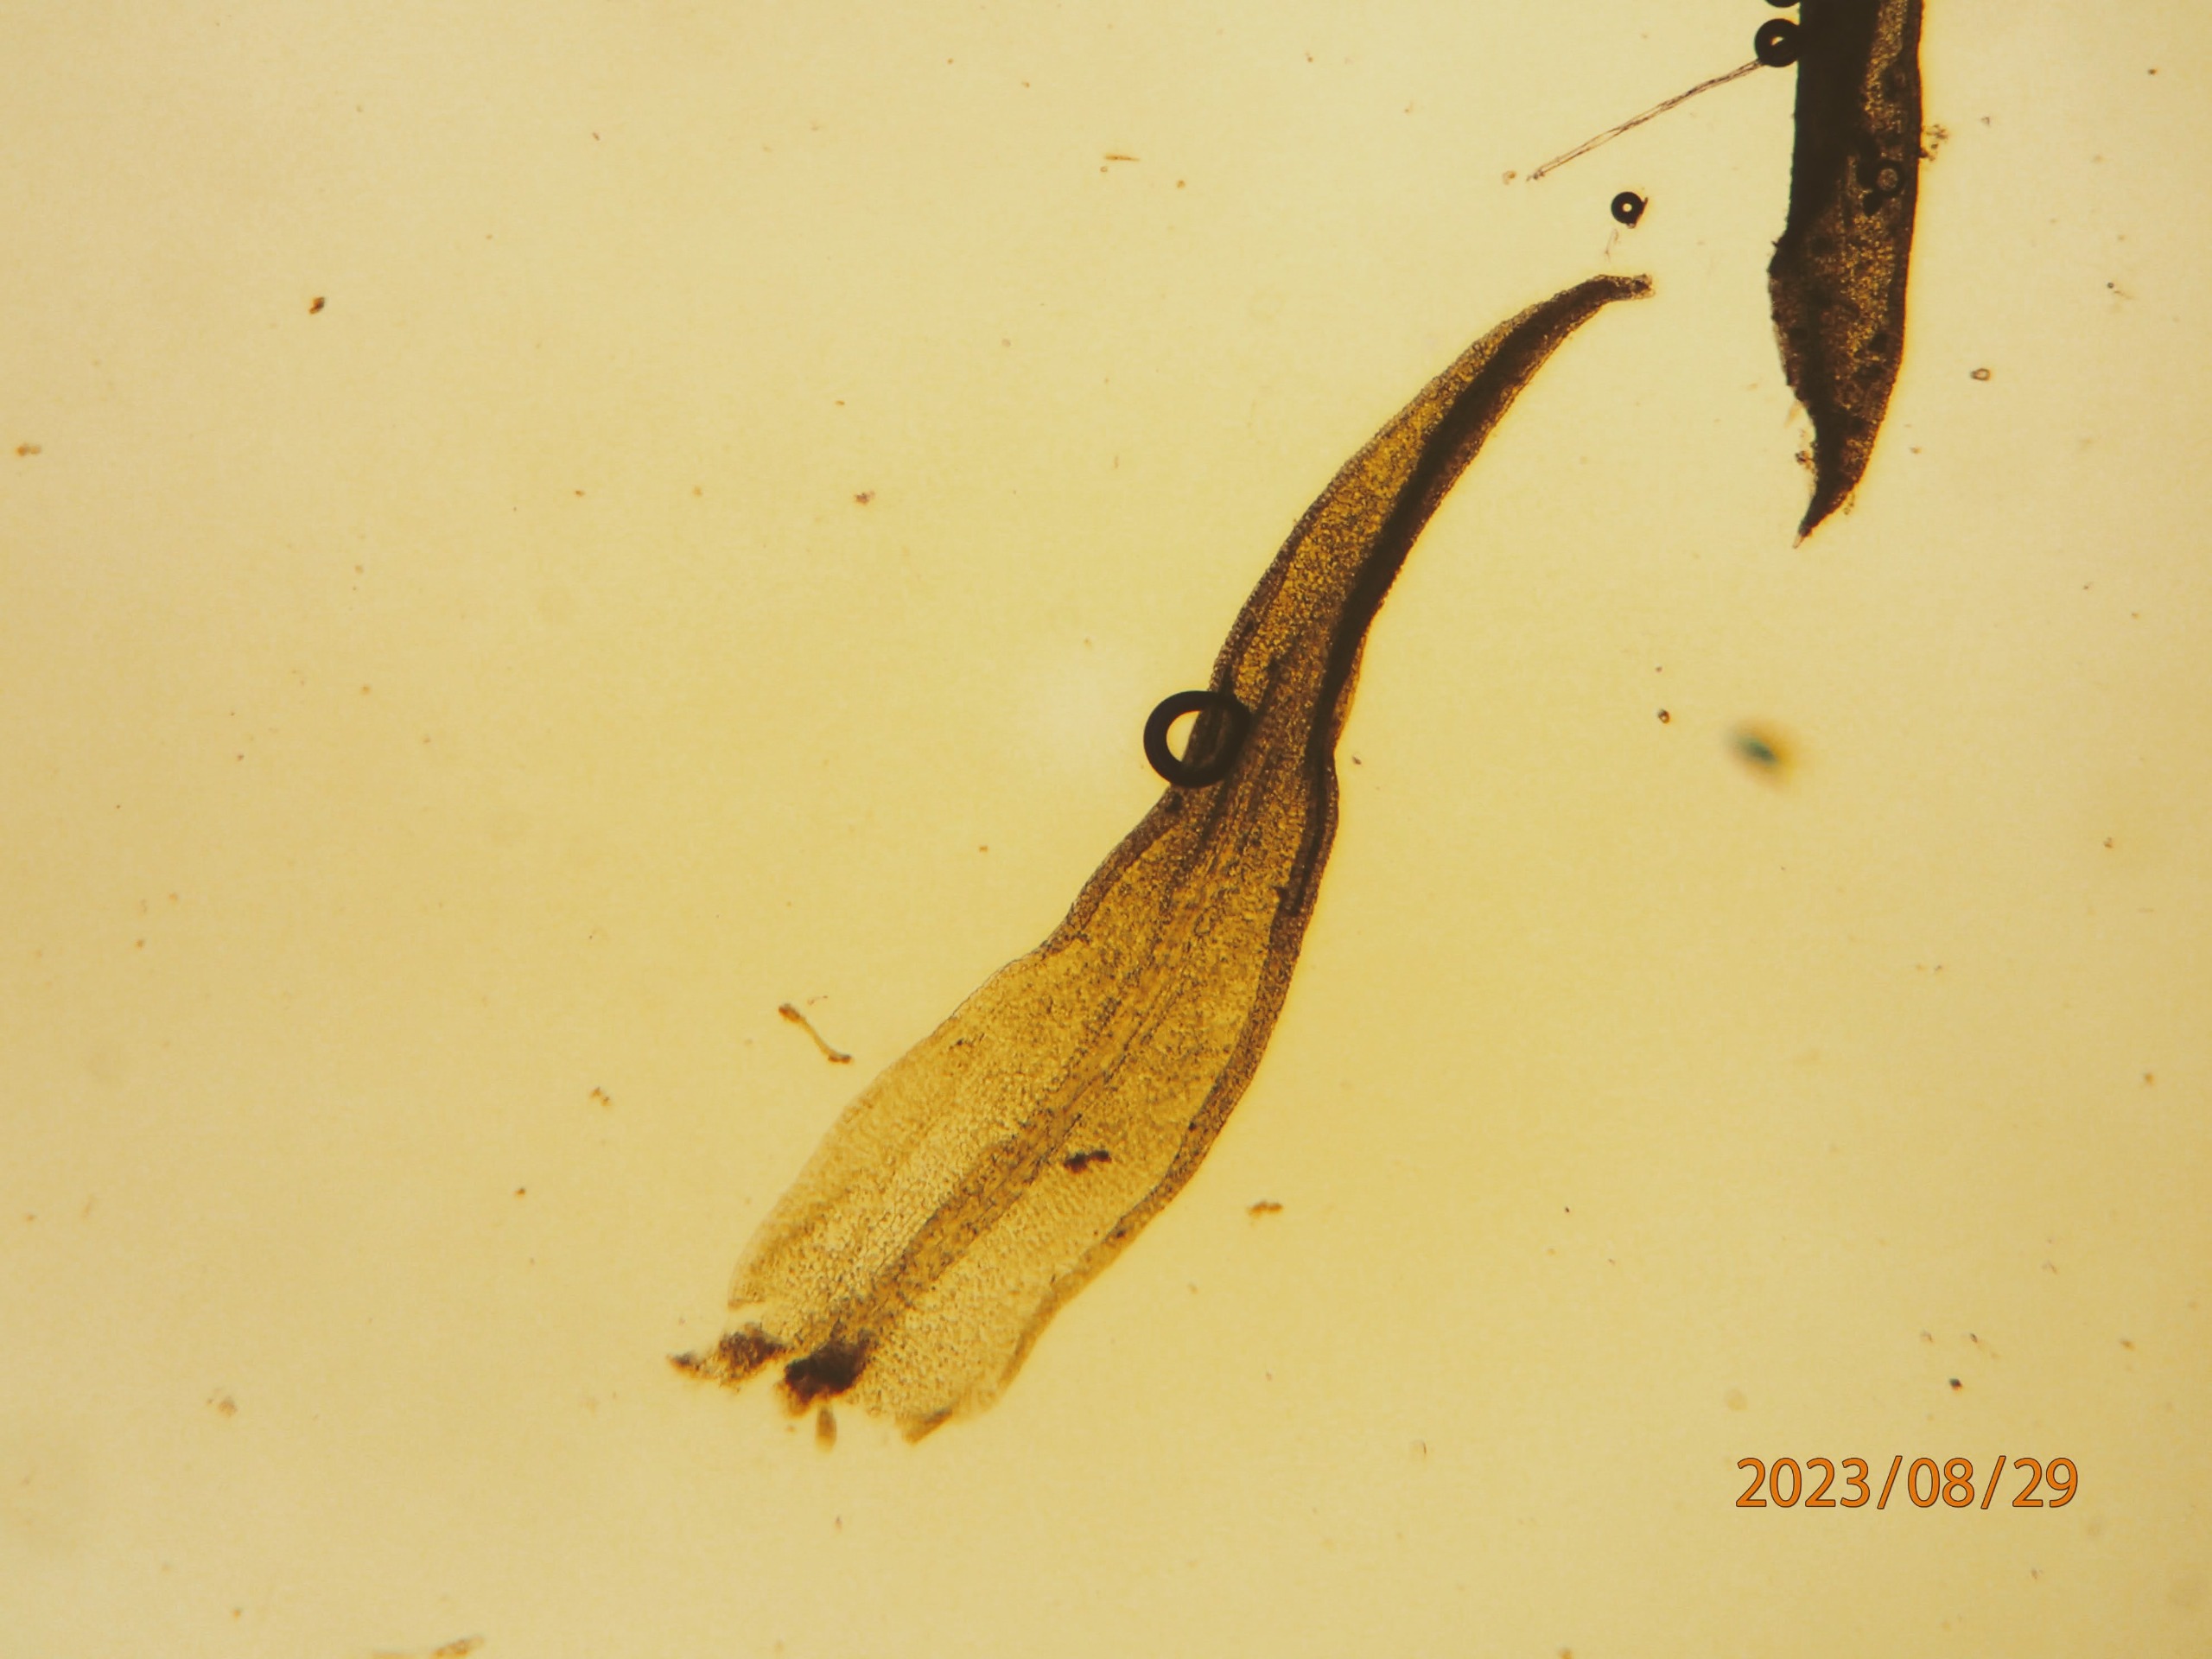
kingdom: Plantae
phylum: Bryophyta
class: Bryopsida
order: Pottiales
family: Pottiaceae
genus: Bryoerythrophyllum
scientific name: Bryoerythrophyllum recurvirostrum
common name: Rød gammelblad
